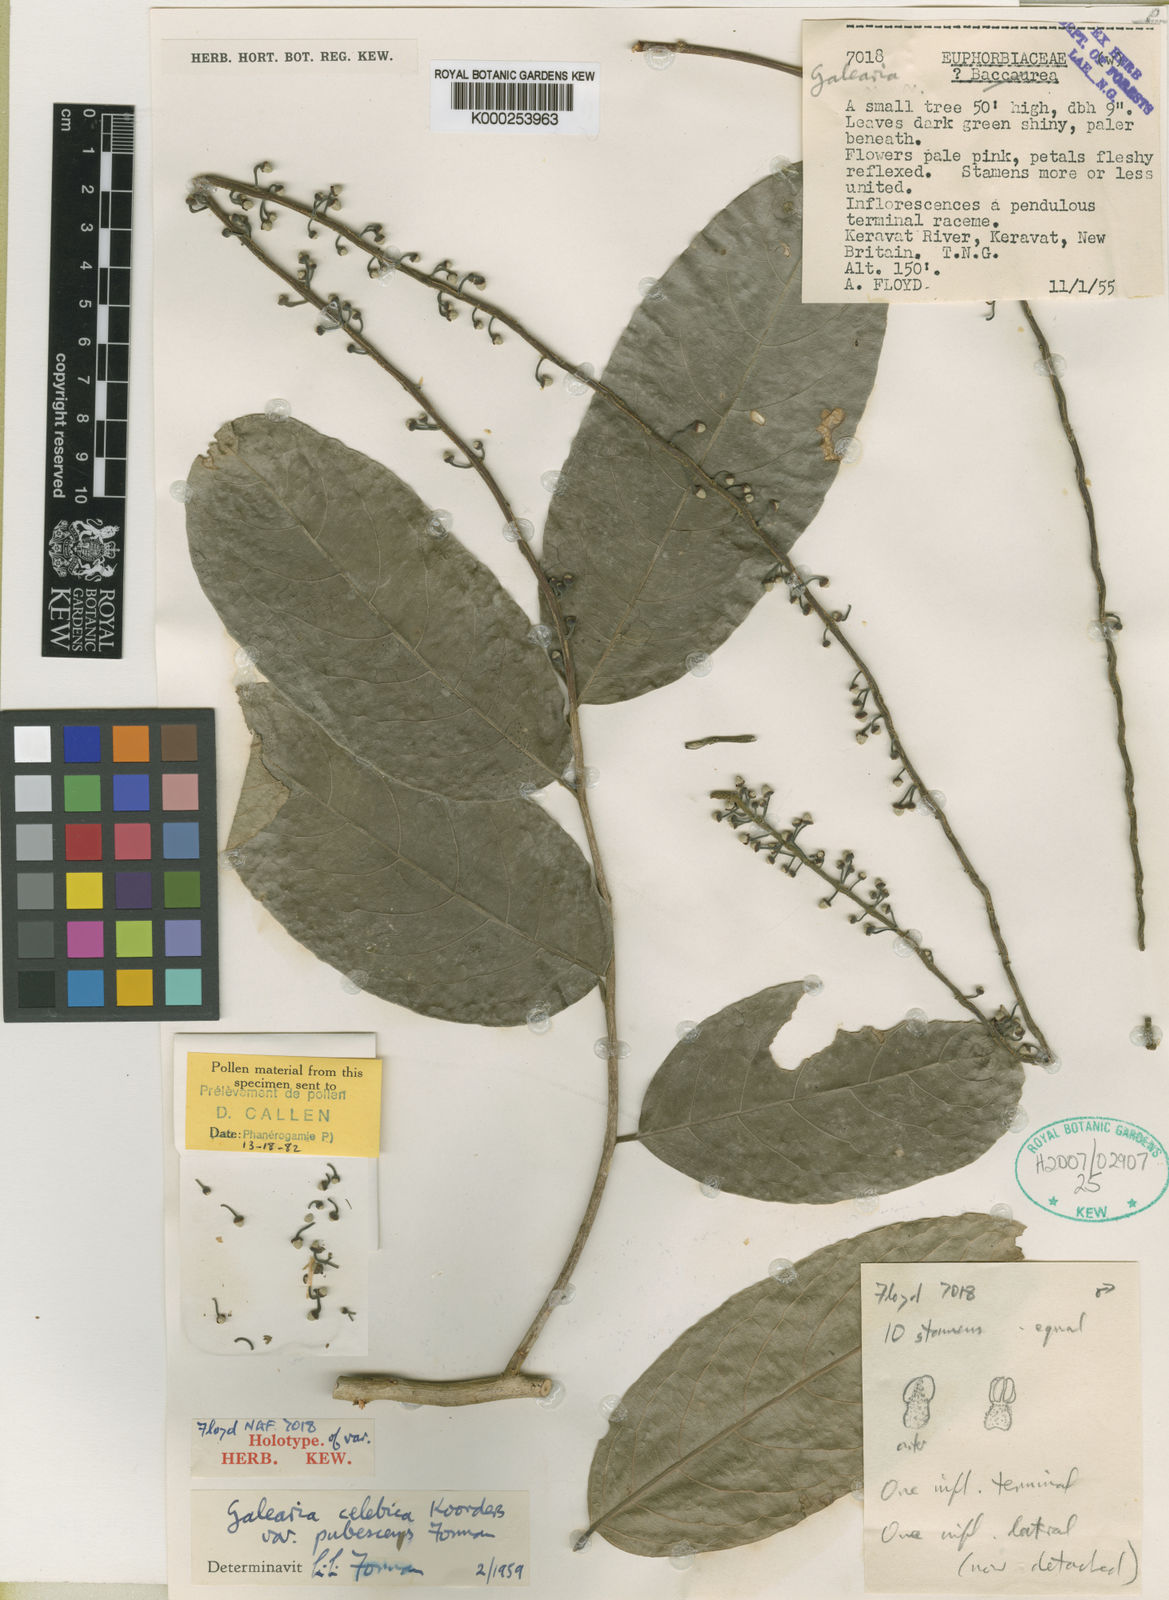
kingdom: Plantae
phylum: Tracheophyta
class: Magnoliopsida
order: Malpighiales
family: Pandaceae
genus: Galearia
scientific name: Galearia celebica
